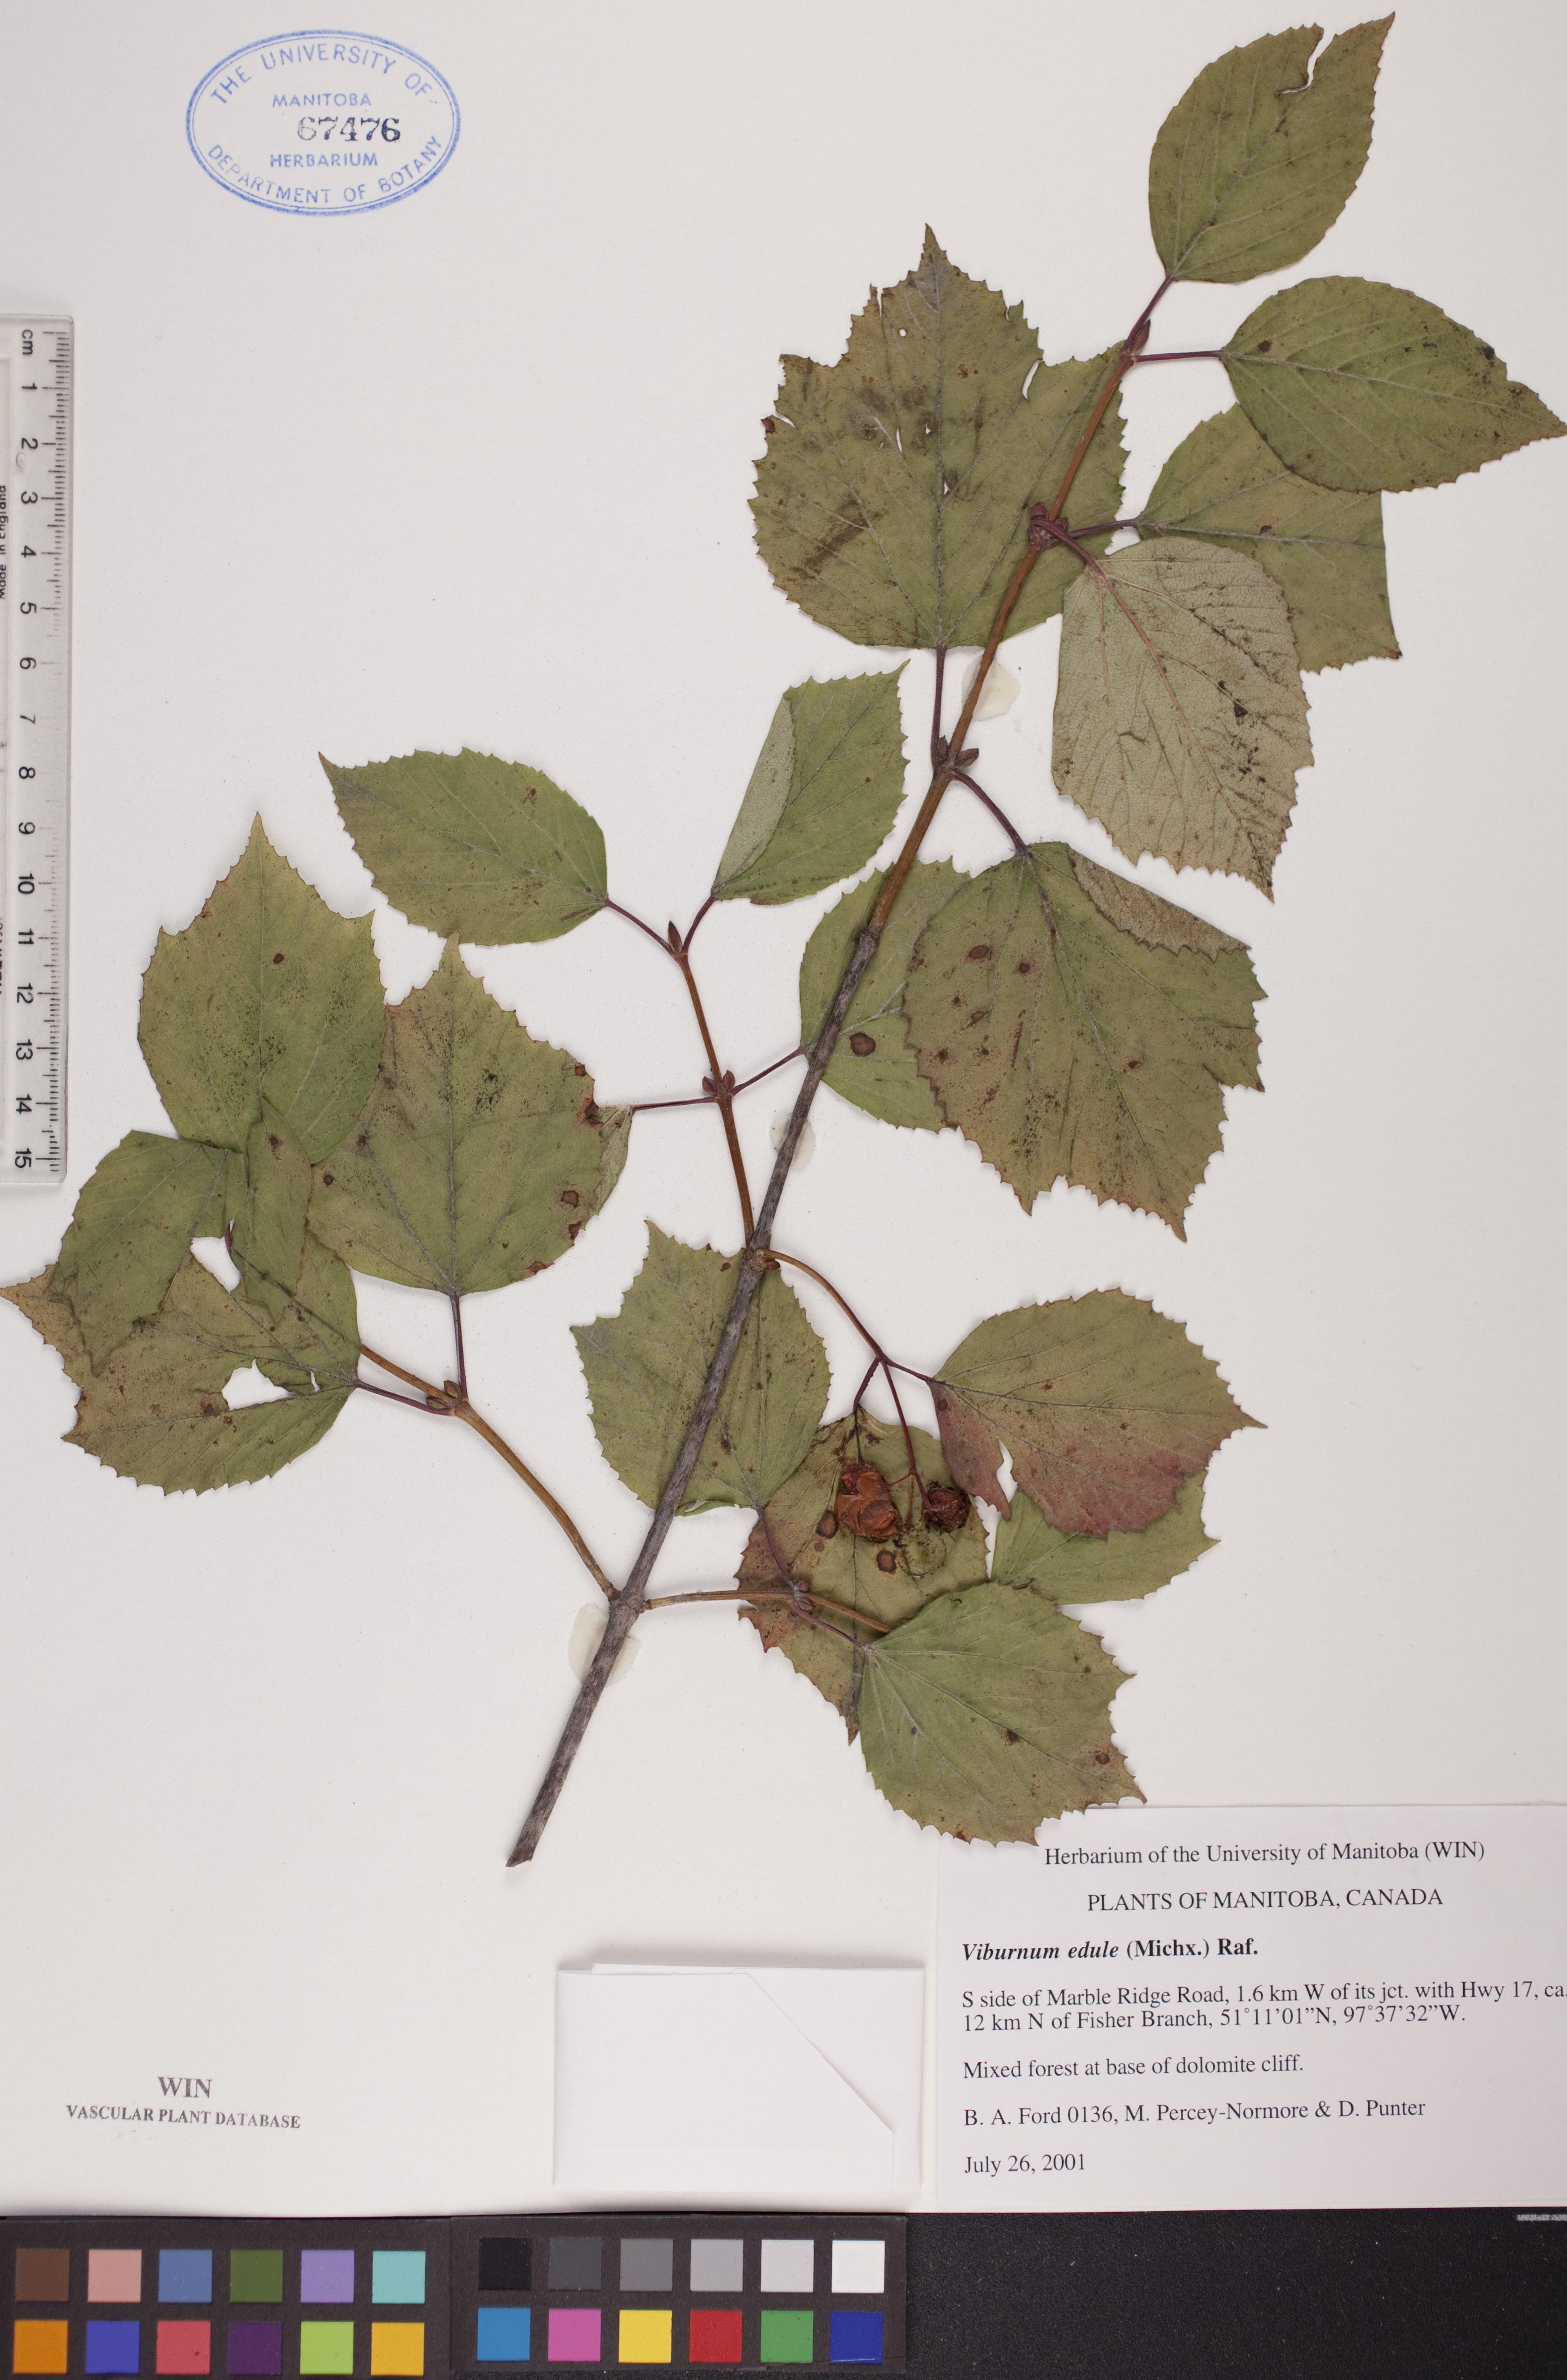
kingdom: Plantae
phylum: Tracheophyta
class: Magnoliopsida
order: Dipsacales
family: Viburnaceae
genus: Viburnum
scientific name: Viburnum edule
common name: Mooseberry
